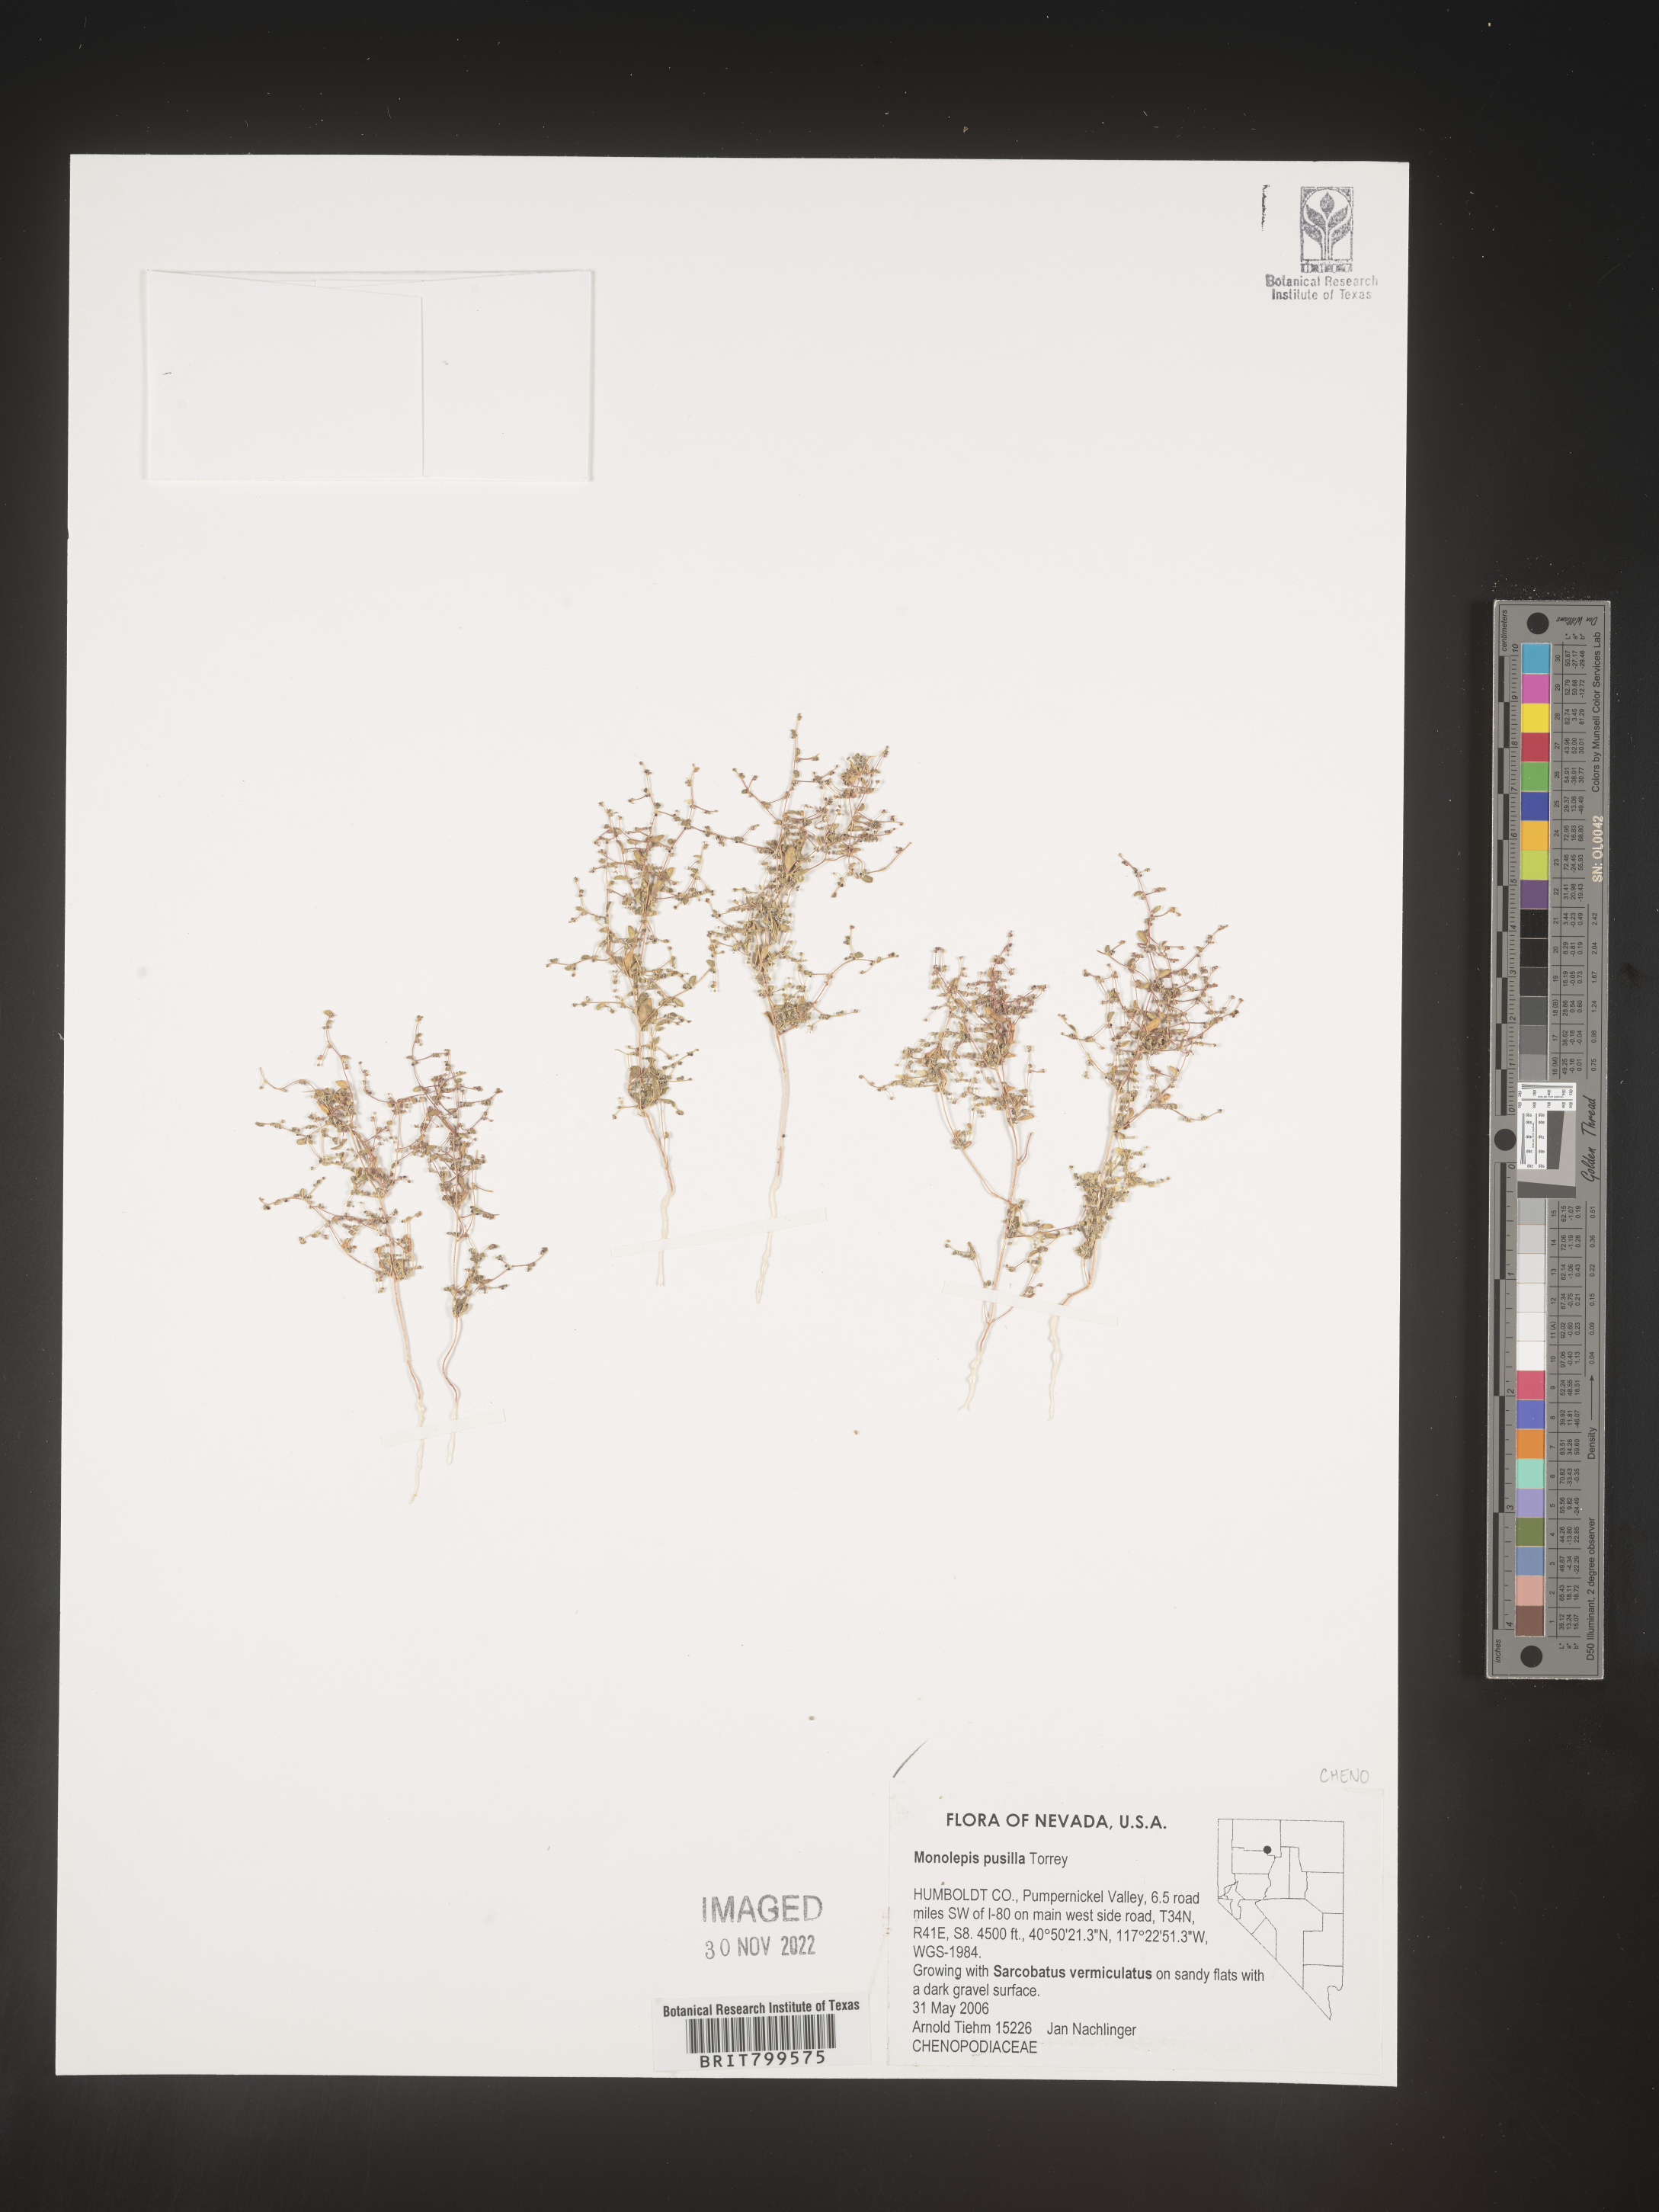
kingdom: Plantae
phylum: Tracheophyta
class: Magnoliopsida
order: Caryophyllales
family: Amaranthaceae
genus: Blitum
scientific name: Blitum
